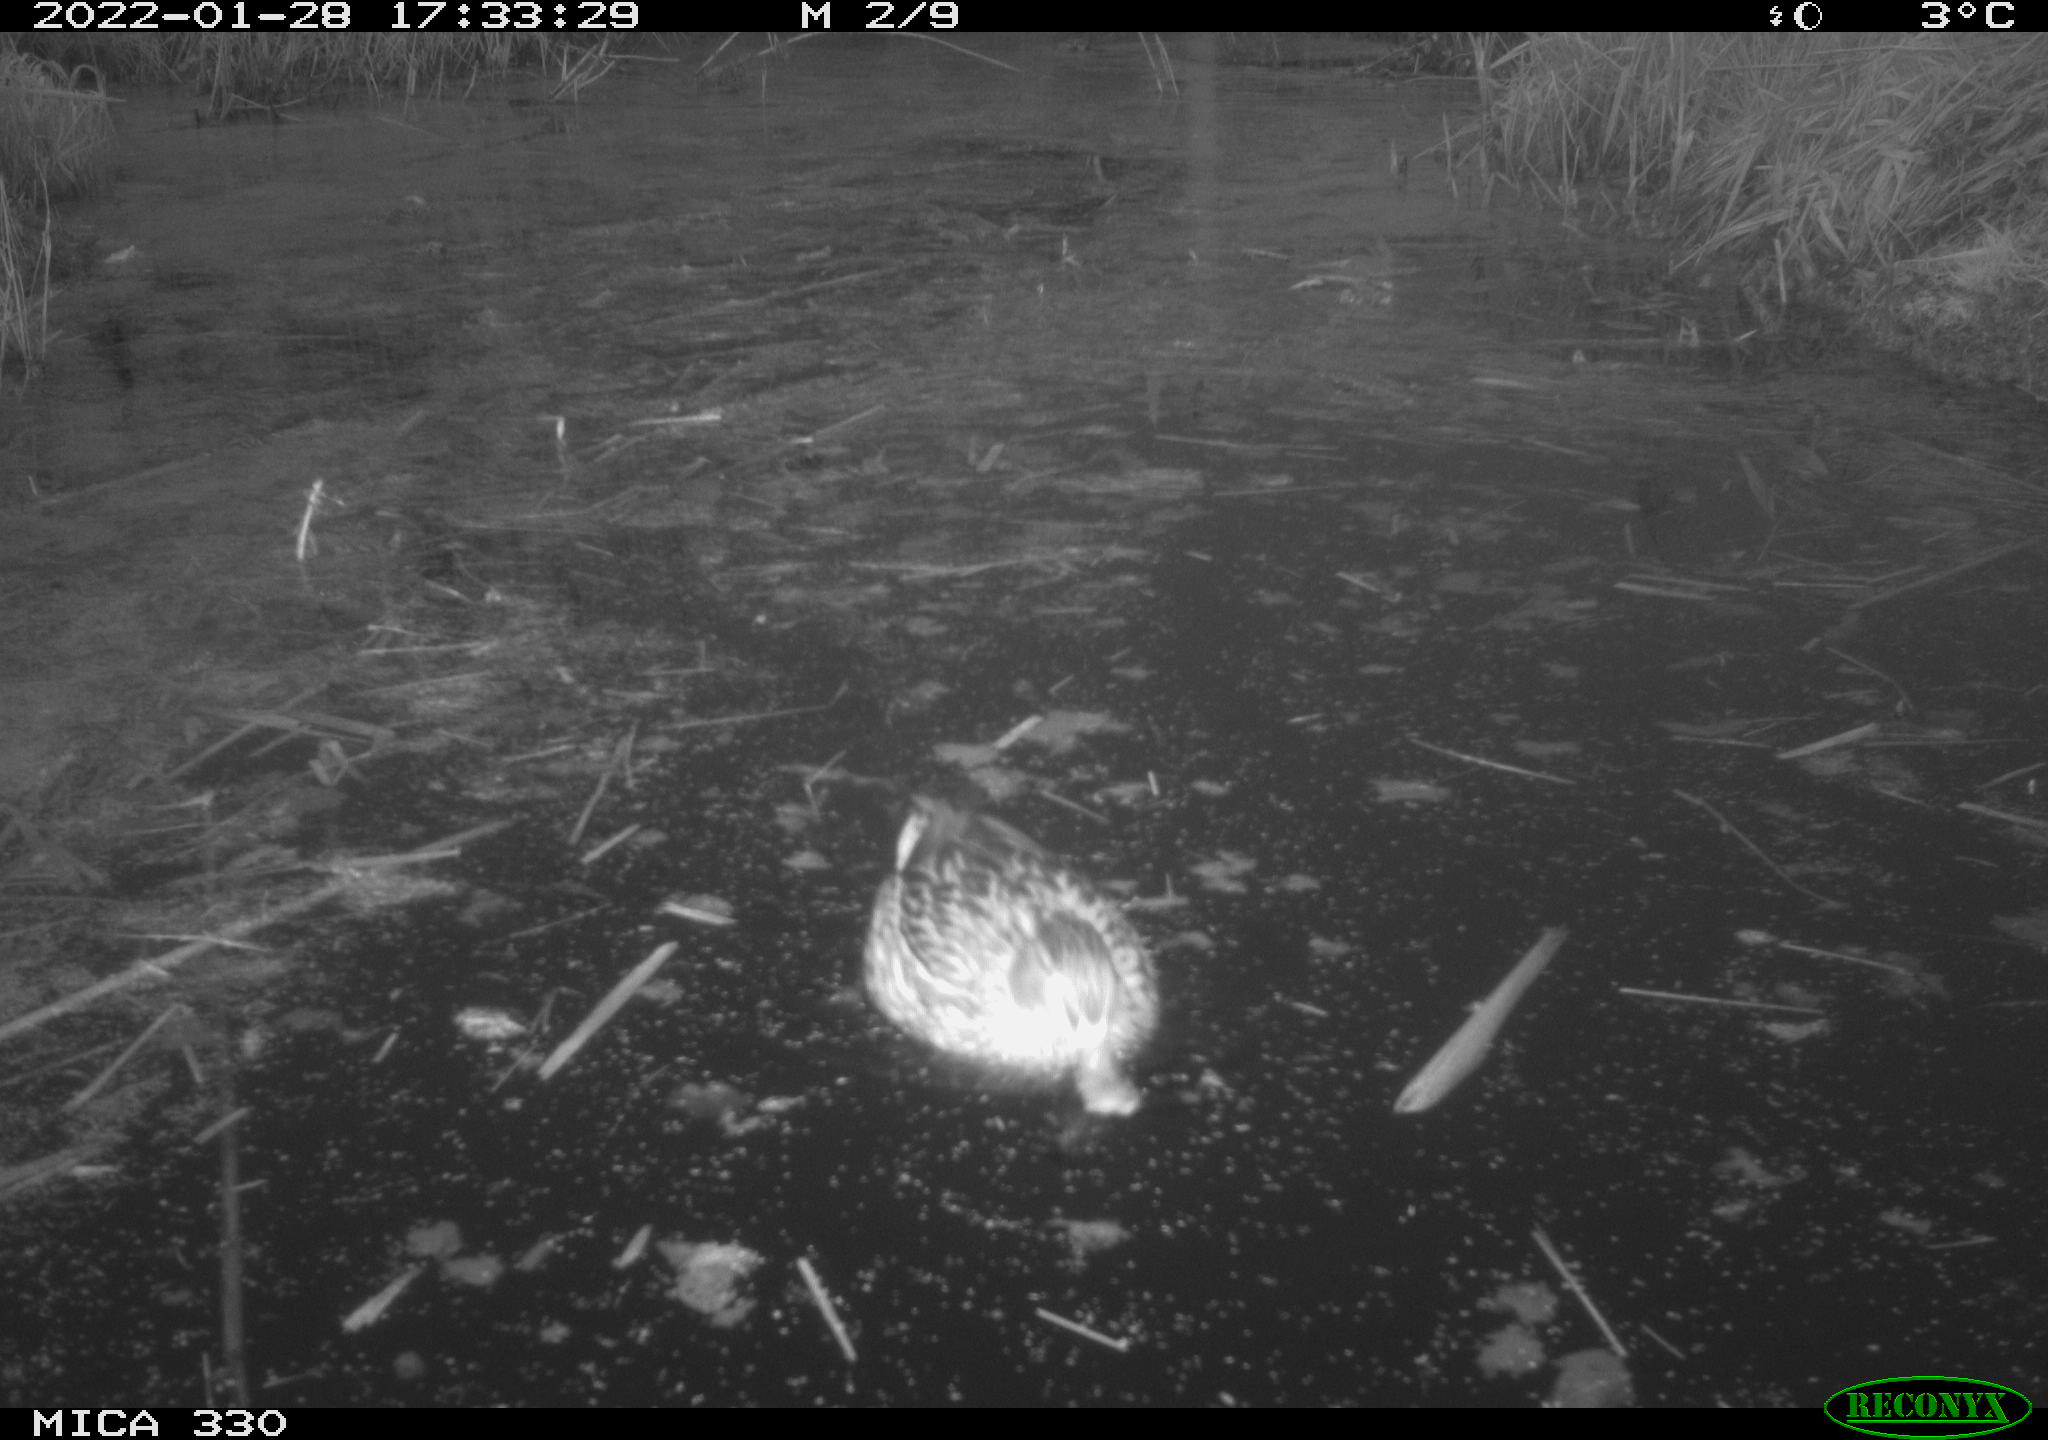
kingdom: Animalia
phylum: Chordata
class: Aves
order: Anseriformes
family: Anatidae
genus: Anas
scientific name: Anas platyrhynchos
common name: Mallard
